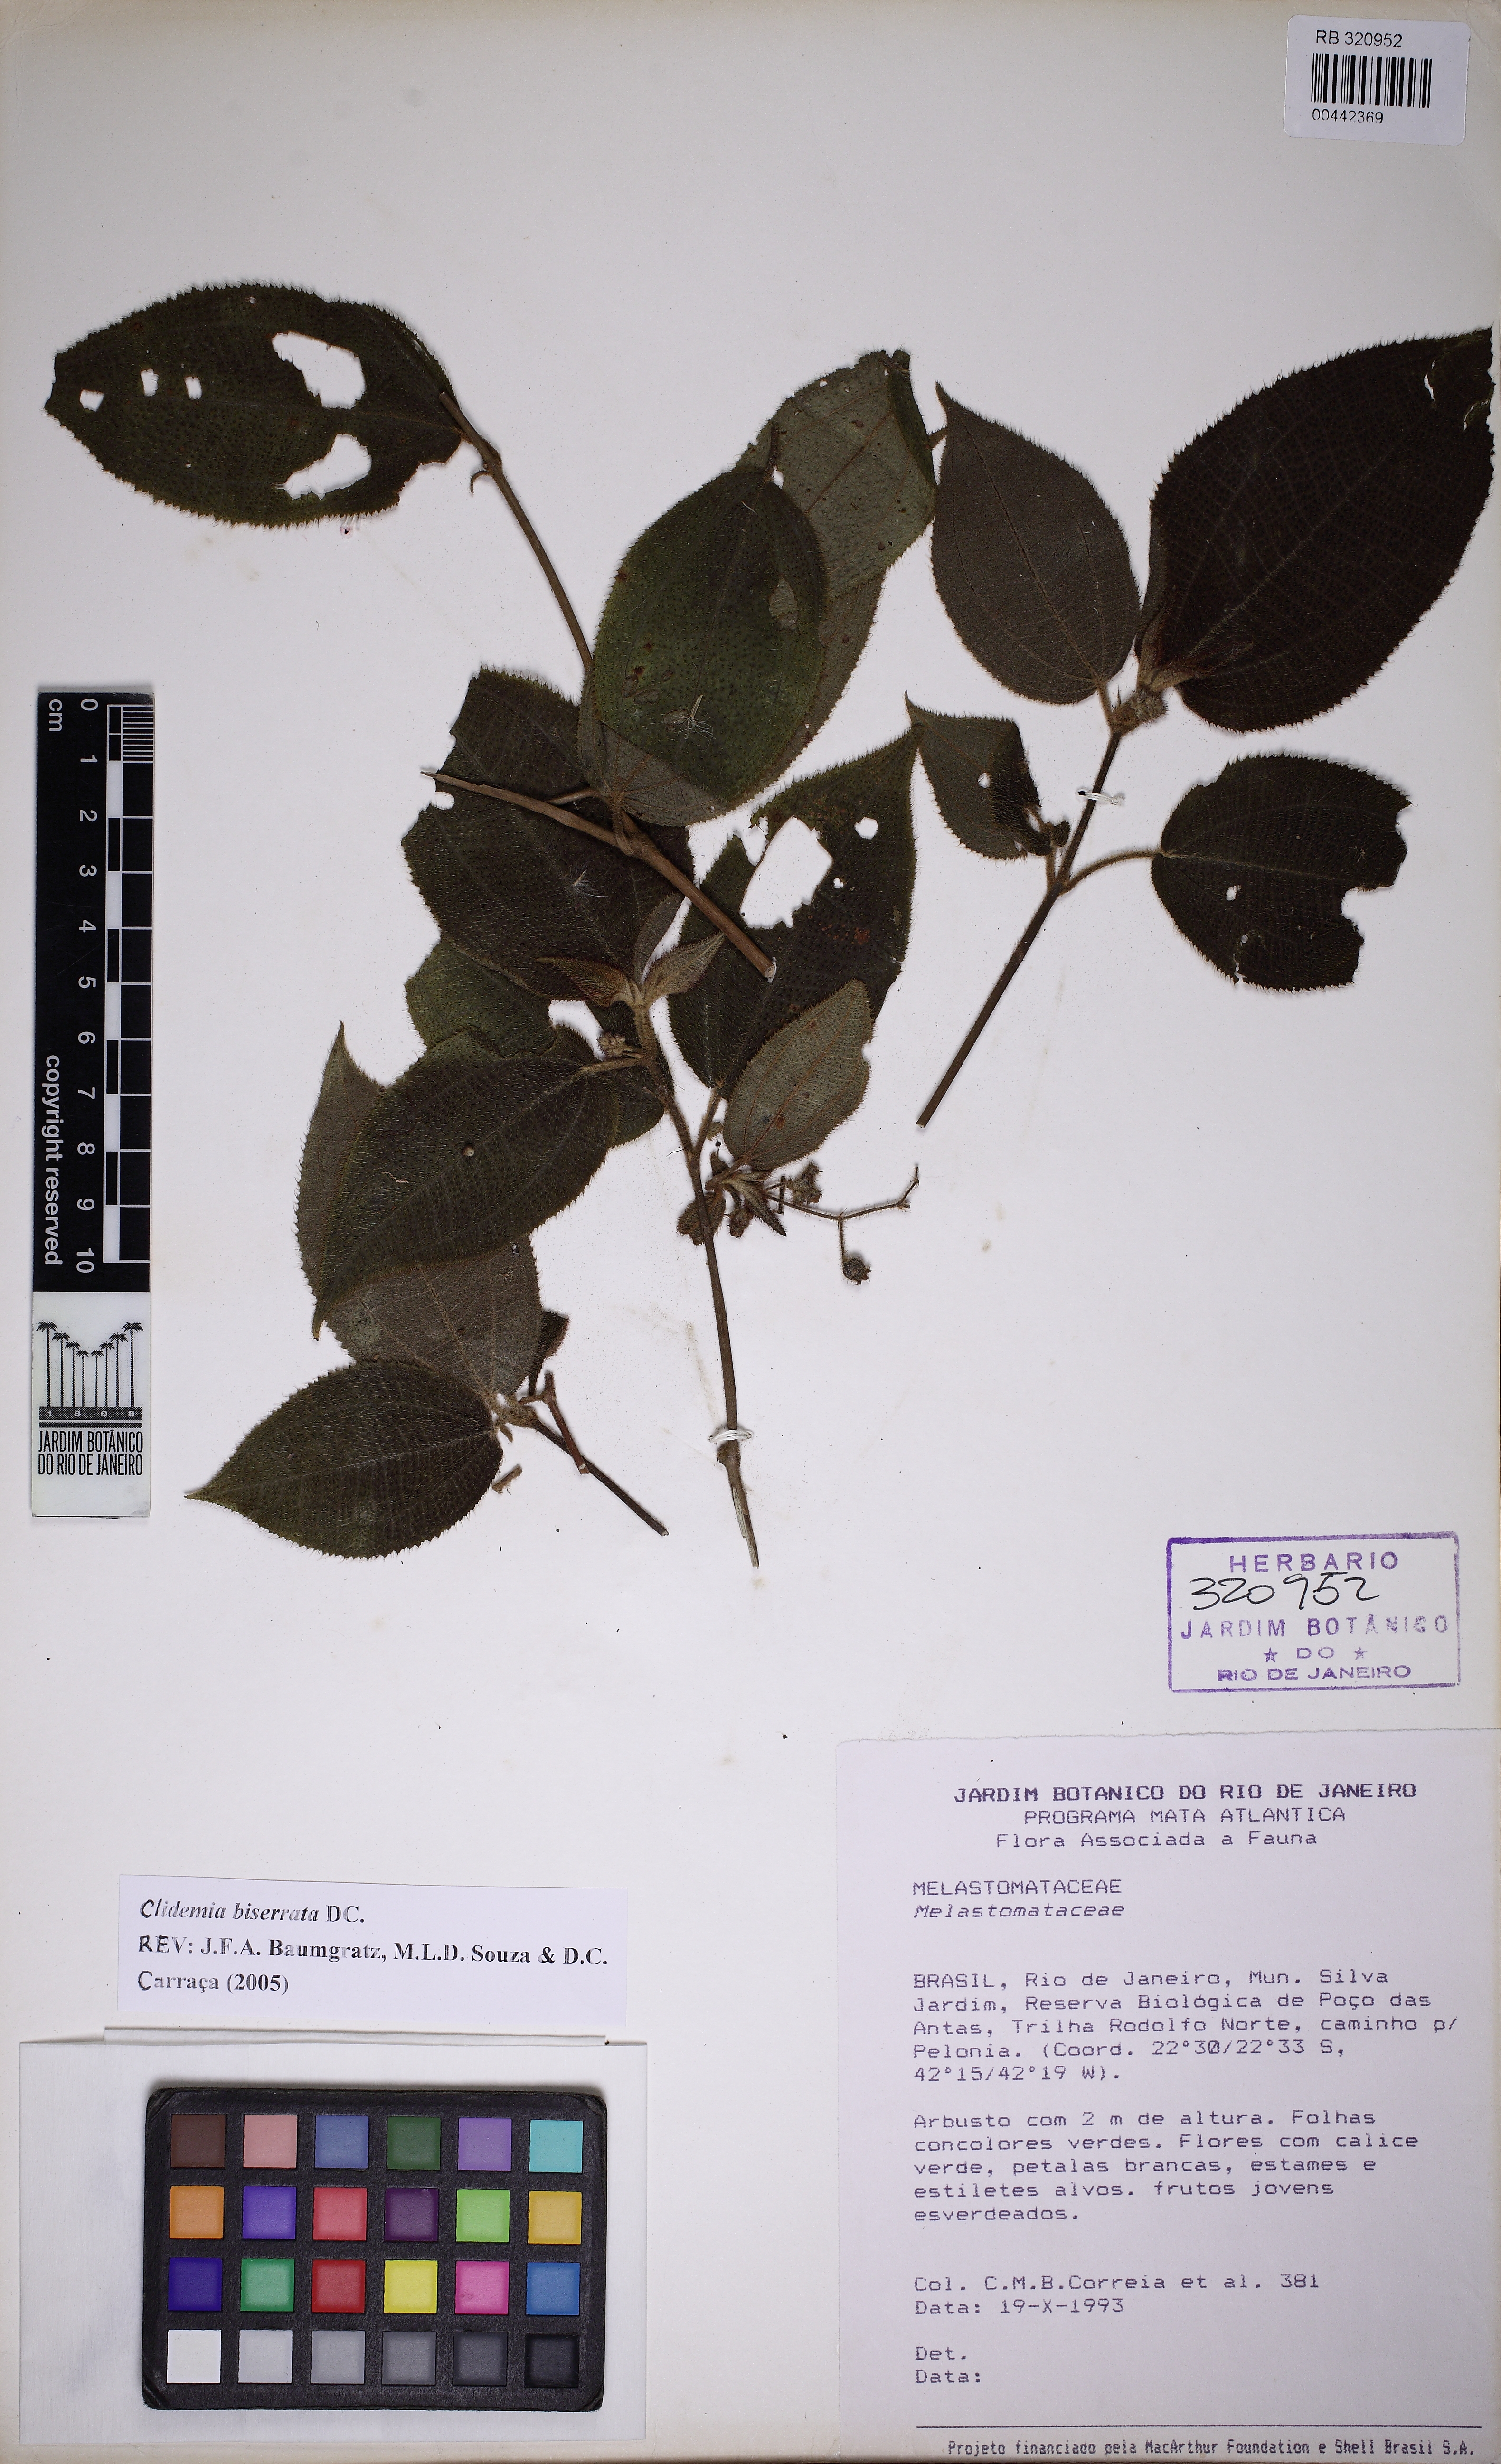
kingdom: Plantae
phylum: Tracheophyta
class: Magnoliopsida
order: Myrtales
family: Melastomataceae
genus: Miconia
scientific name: Miconia biserrata
